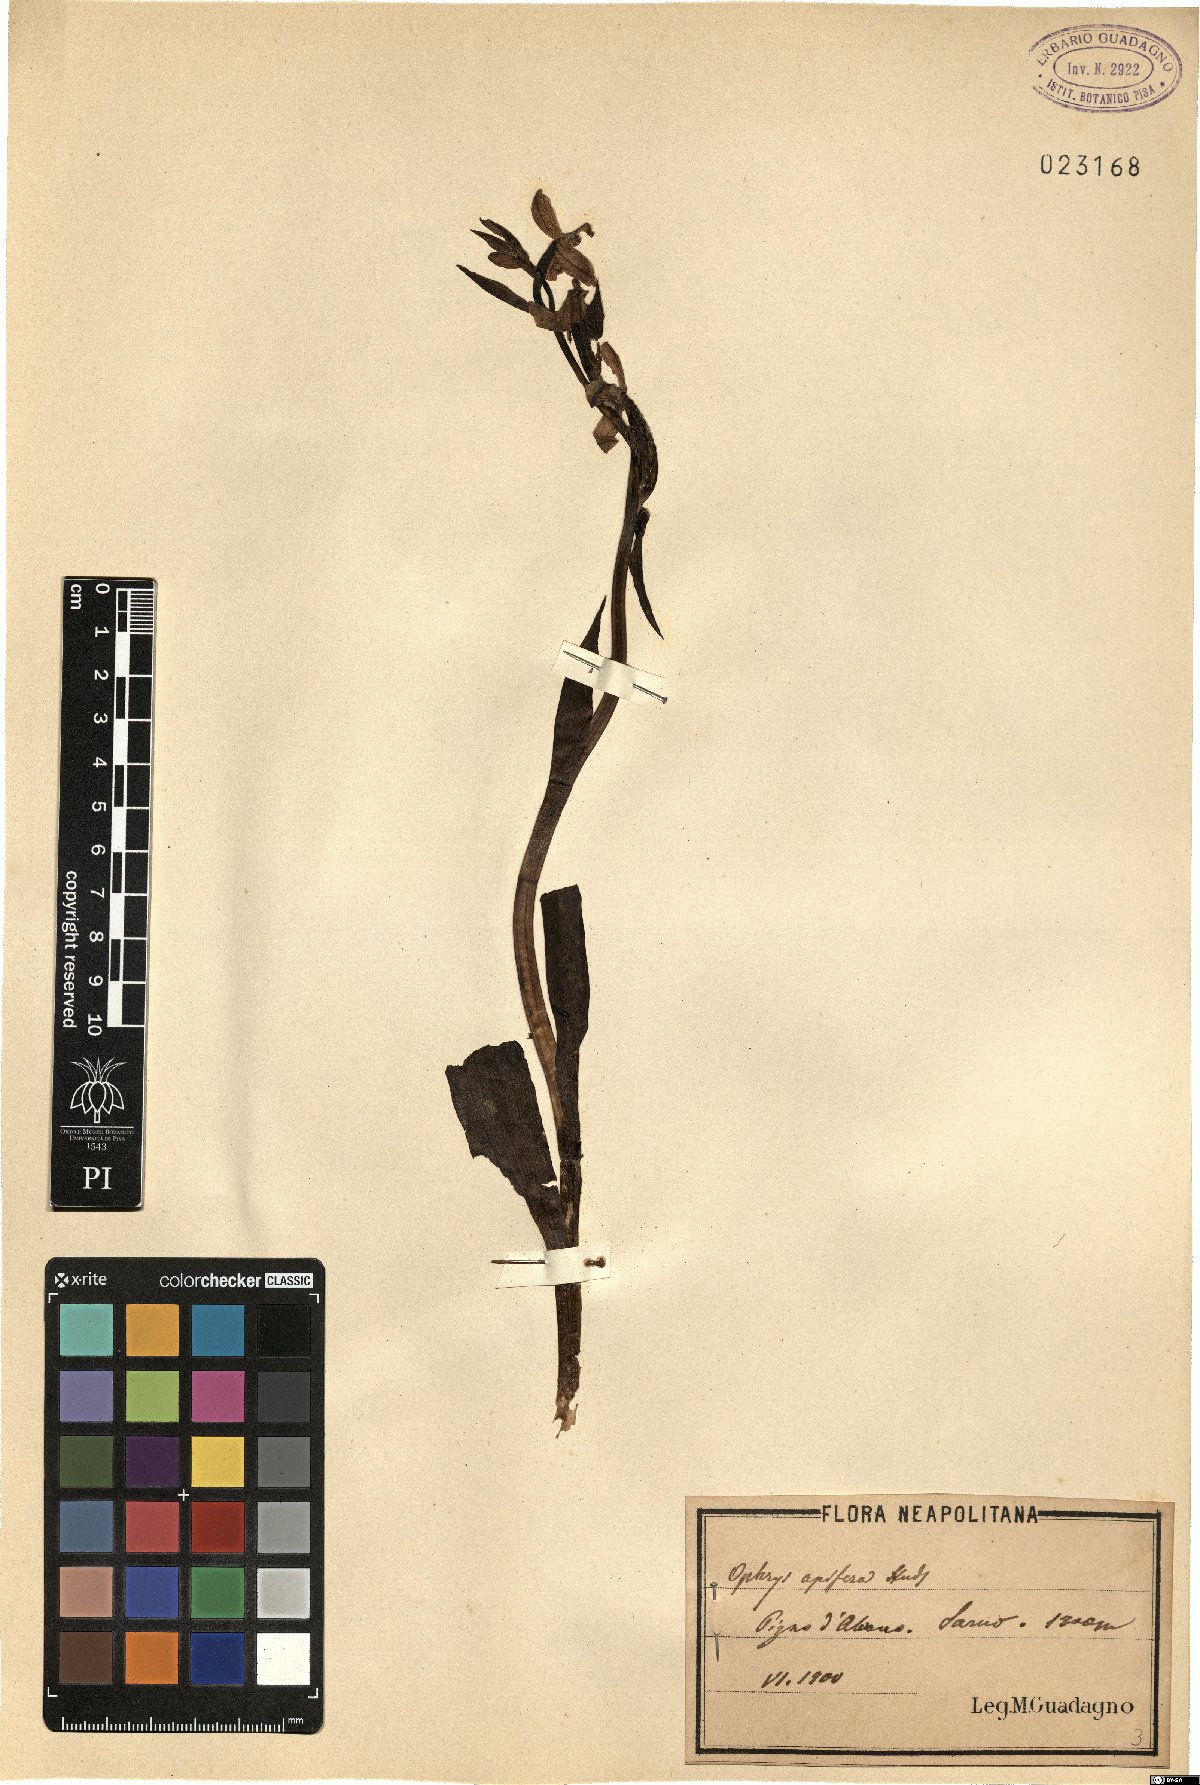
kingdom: Plantae
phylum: Tracheophyta
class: Liliopsida
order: Asparagales
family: Orchidaceae
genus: Ophrys
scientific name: Ophrys apifera
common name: Bee orchid
